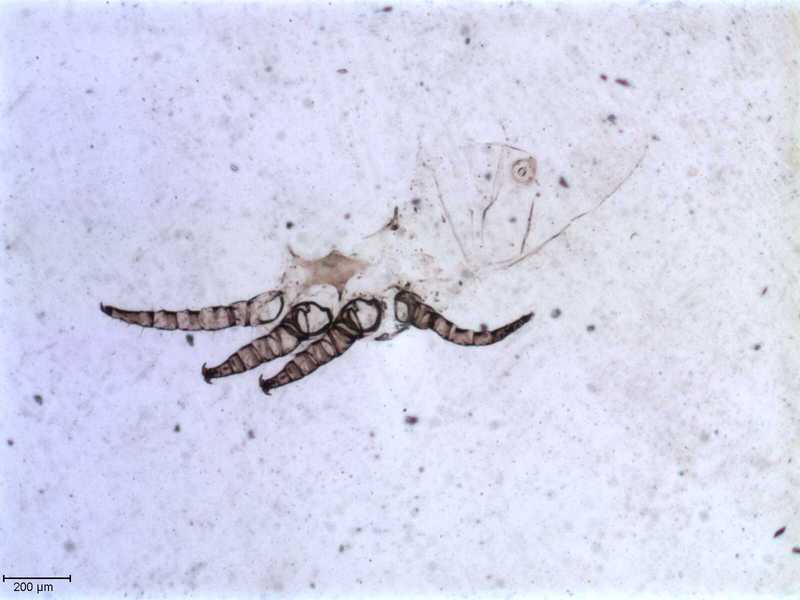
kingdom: Animalia
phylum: Arthropoda
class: Arachnida
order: Mesostigmata
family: Halarachnidae
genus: Orthohalarachne
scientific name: Orthohalarachne letalis
